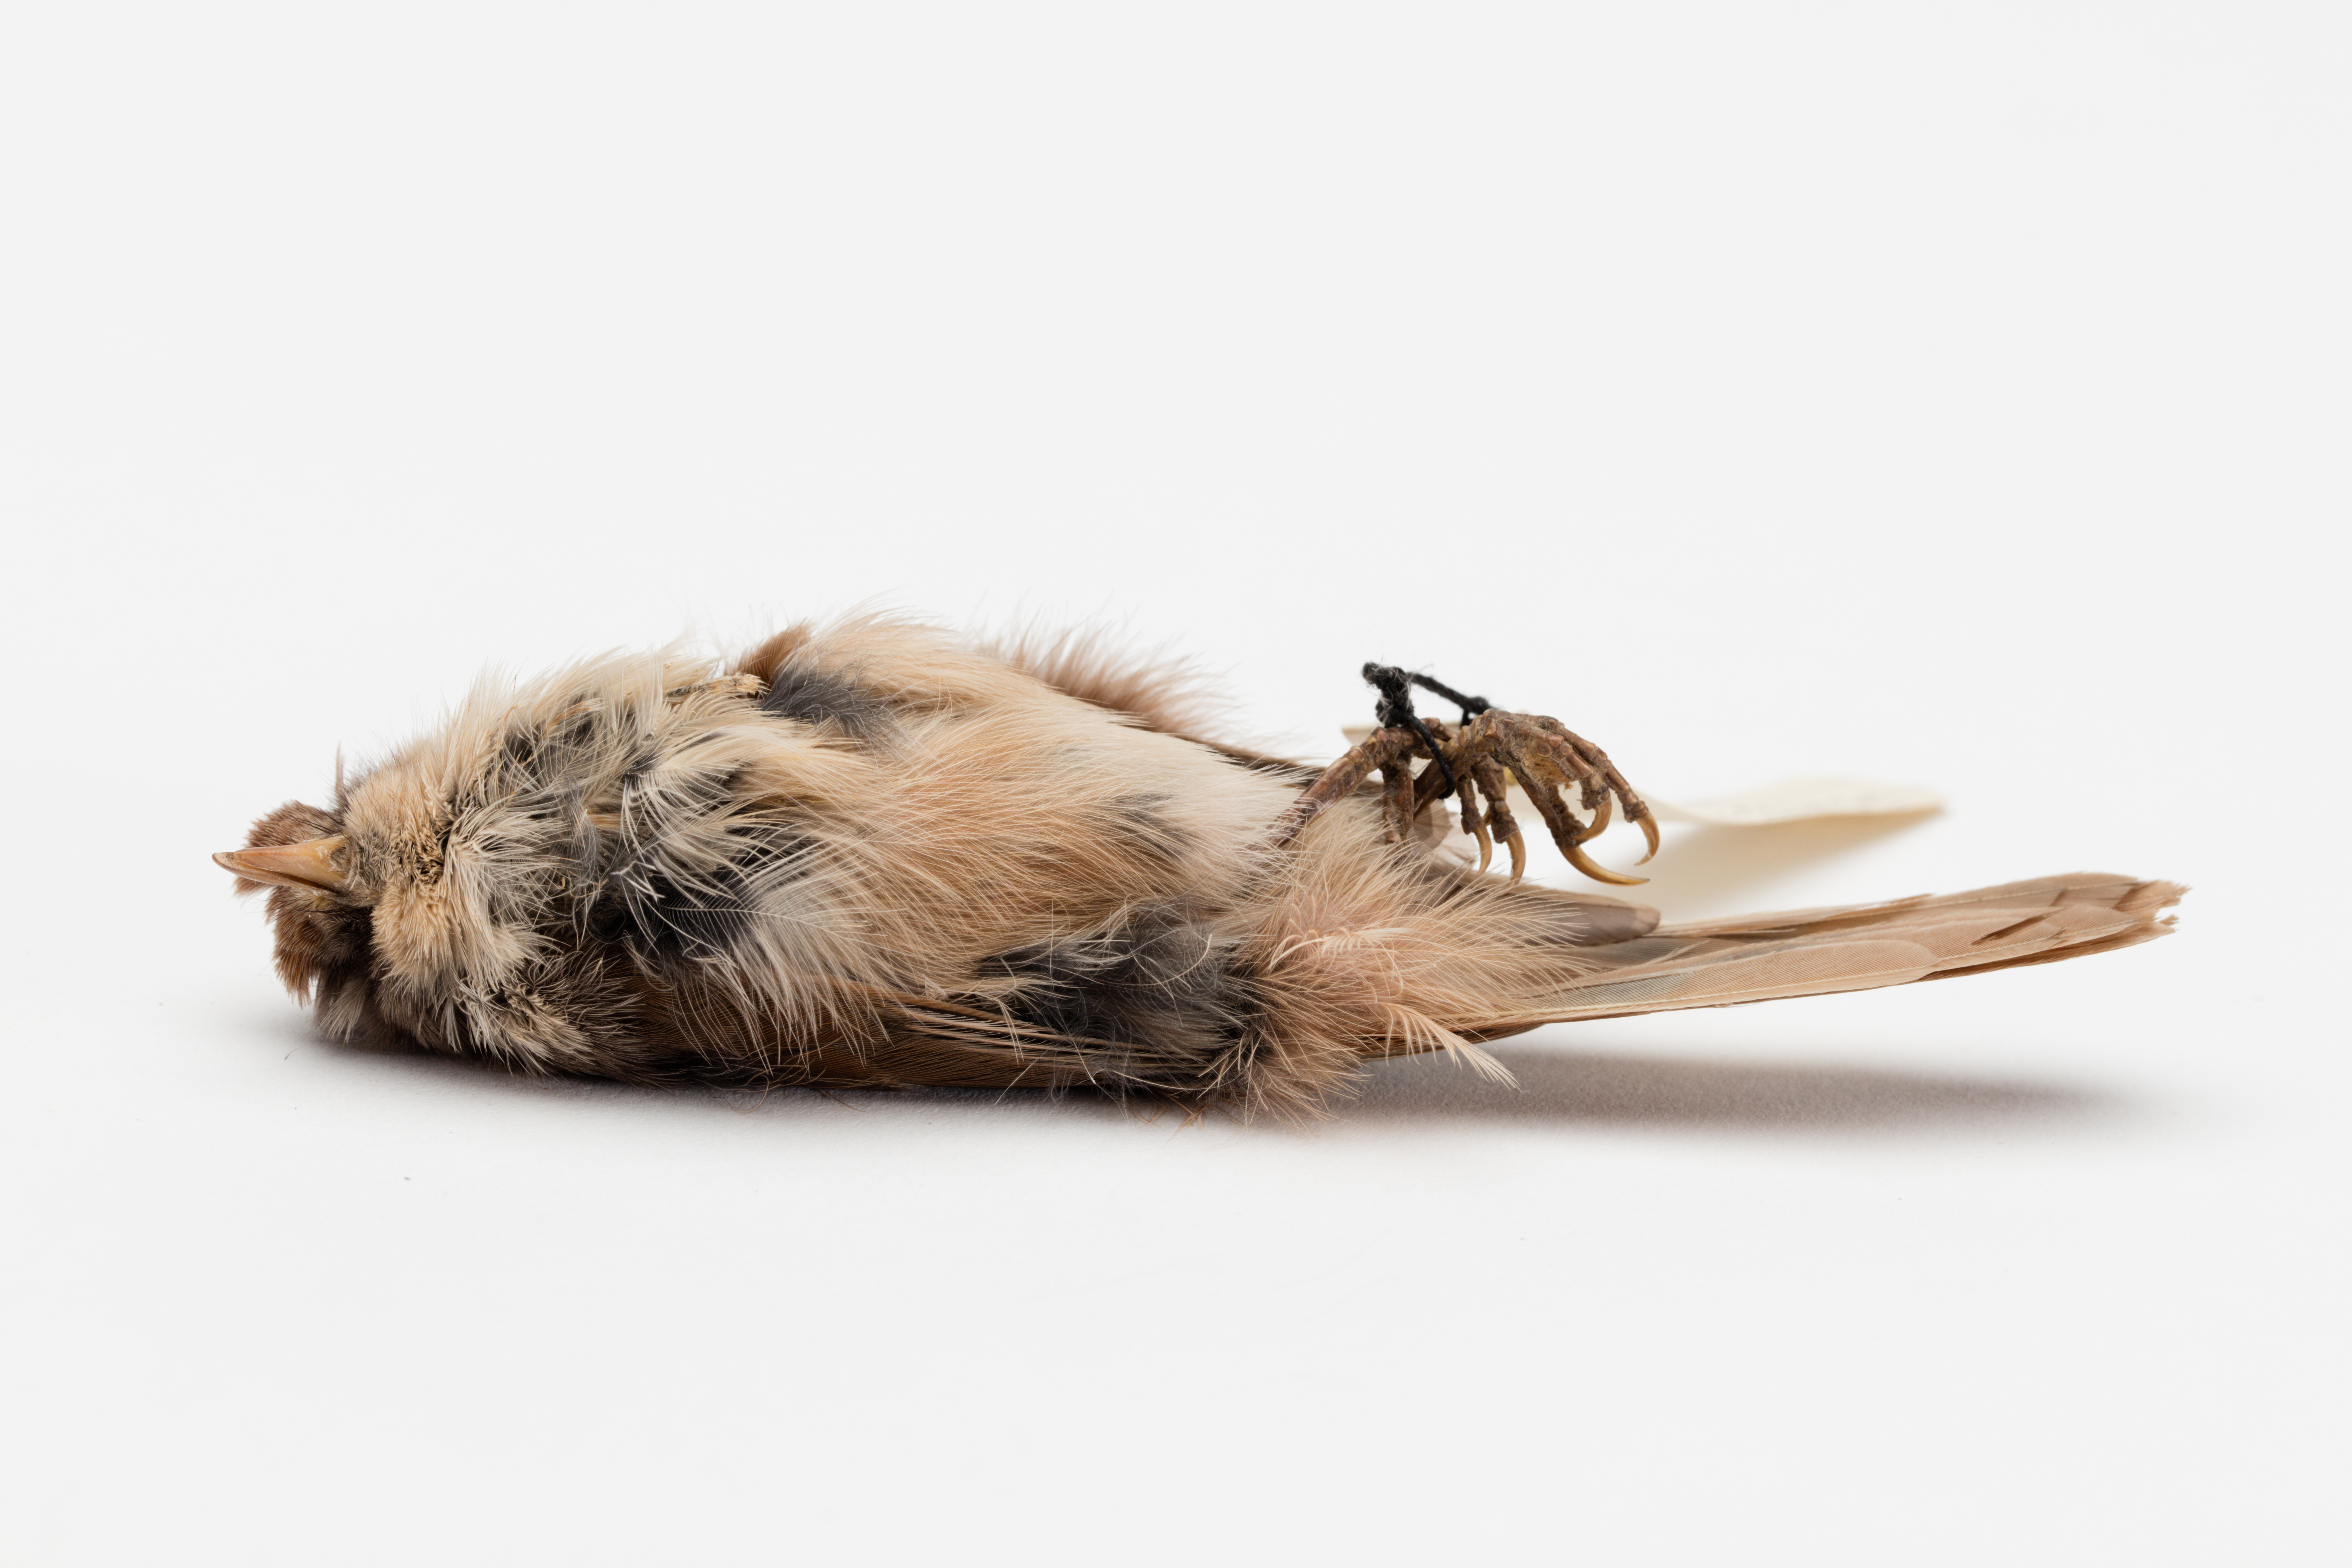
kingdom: Animalia
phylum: Chordata
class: Aves
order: Passeriformes
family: Acanthizidae
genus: Finschia
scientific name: Finschia novaeseelandiae
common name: Pipipi
